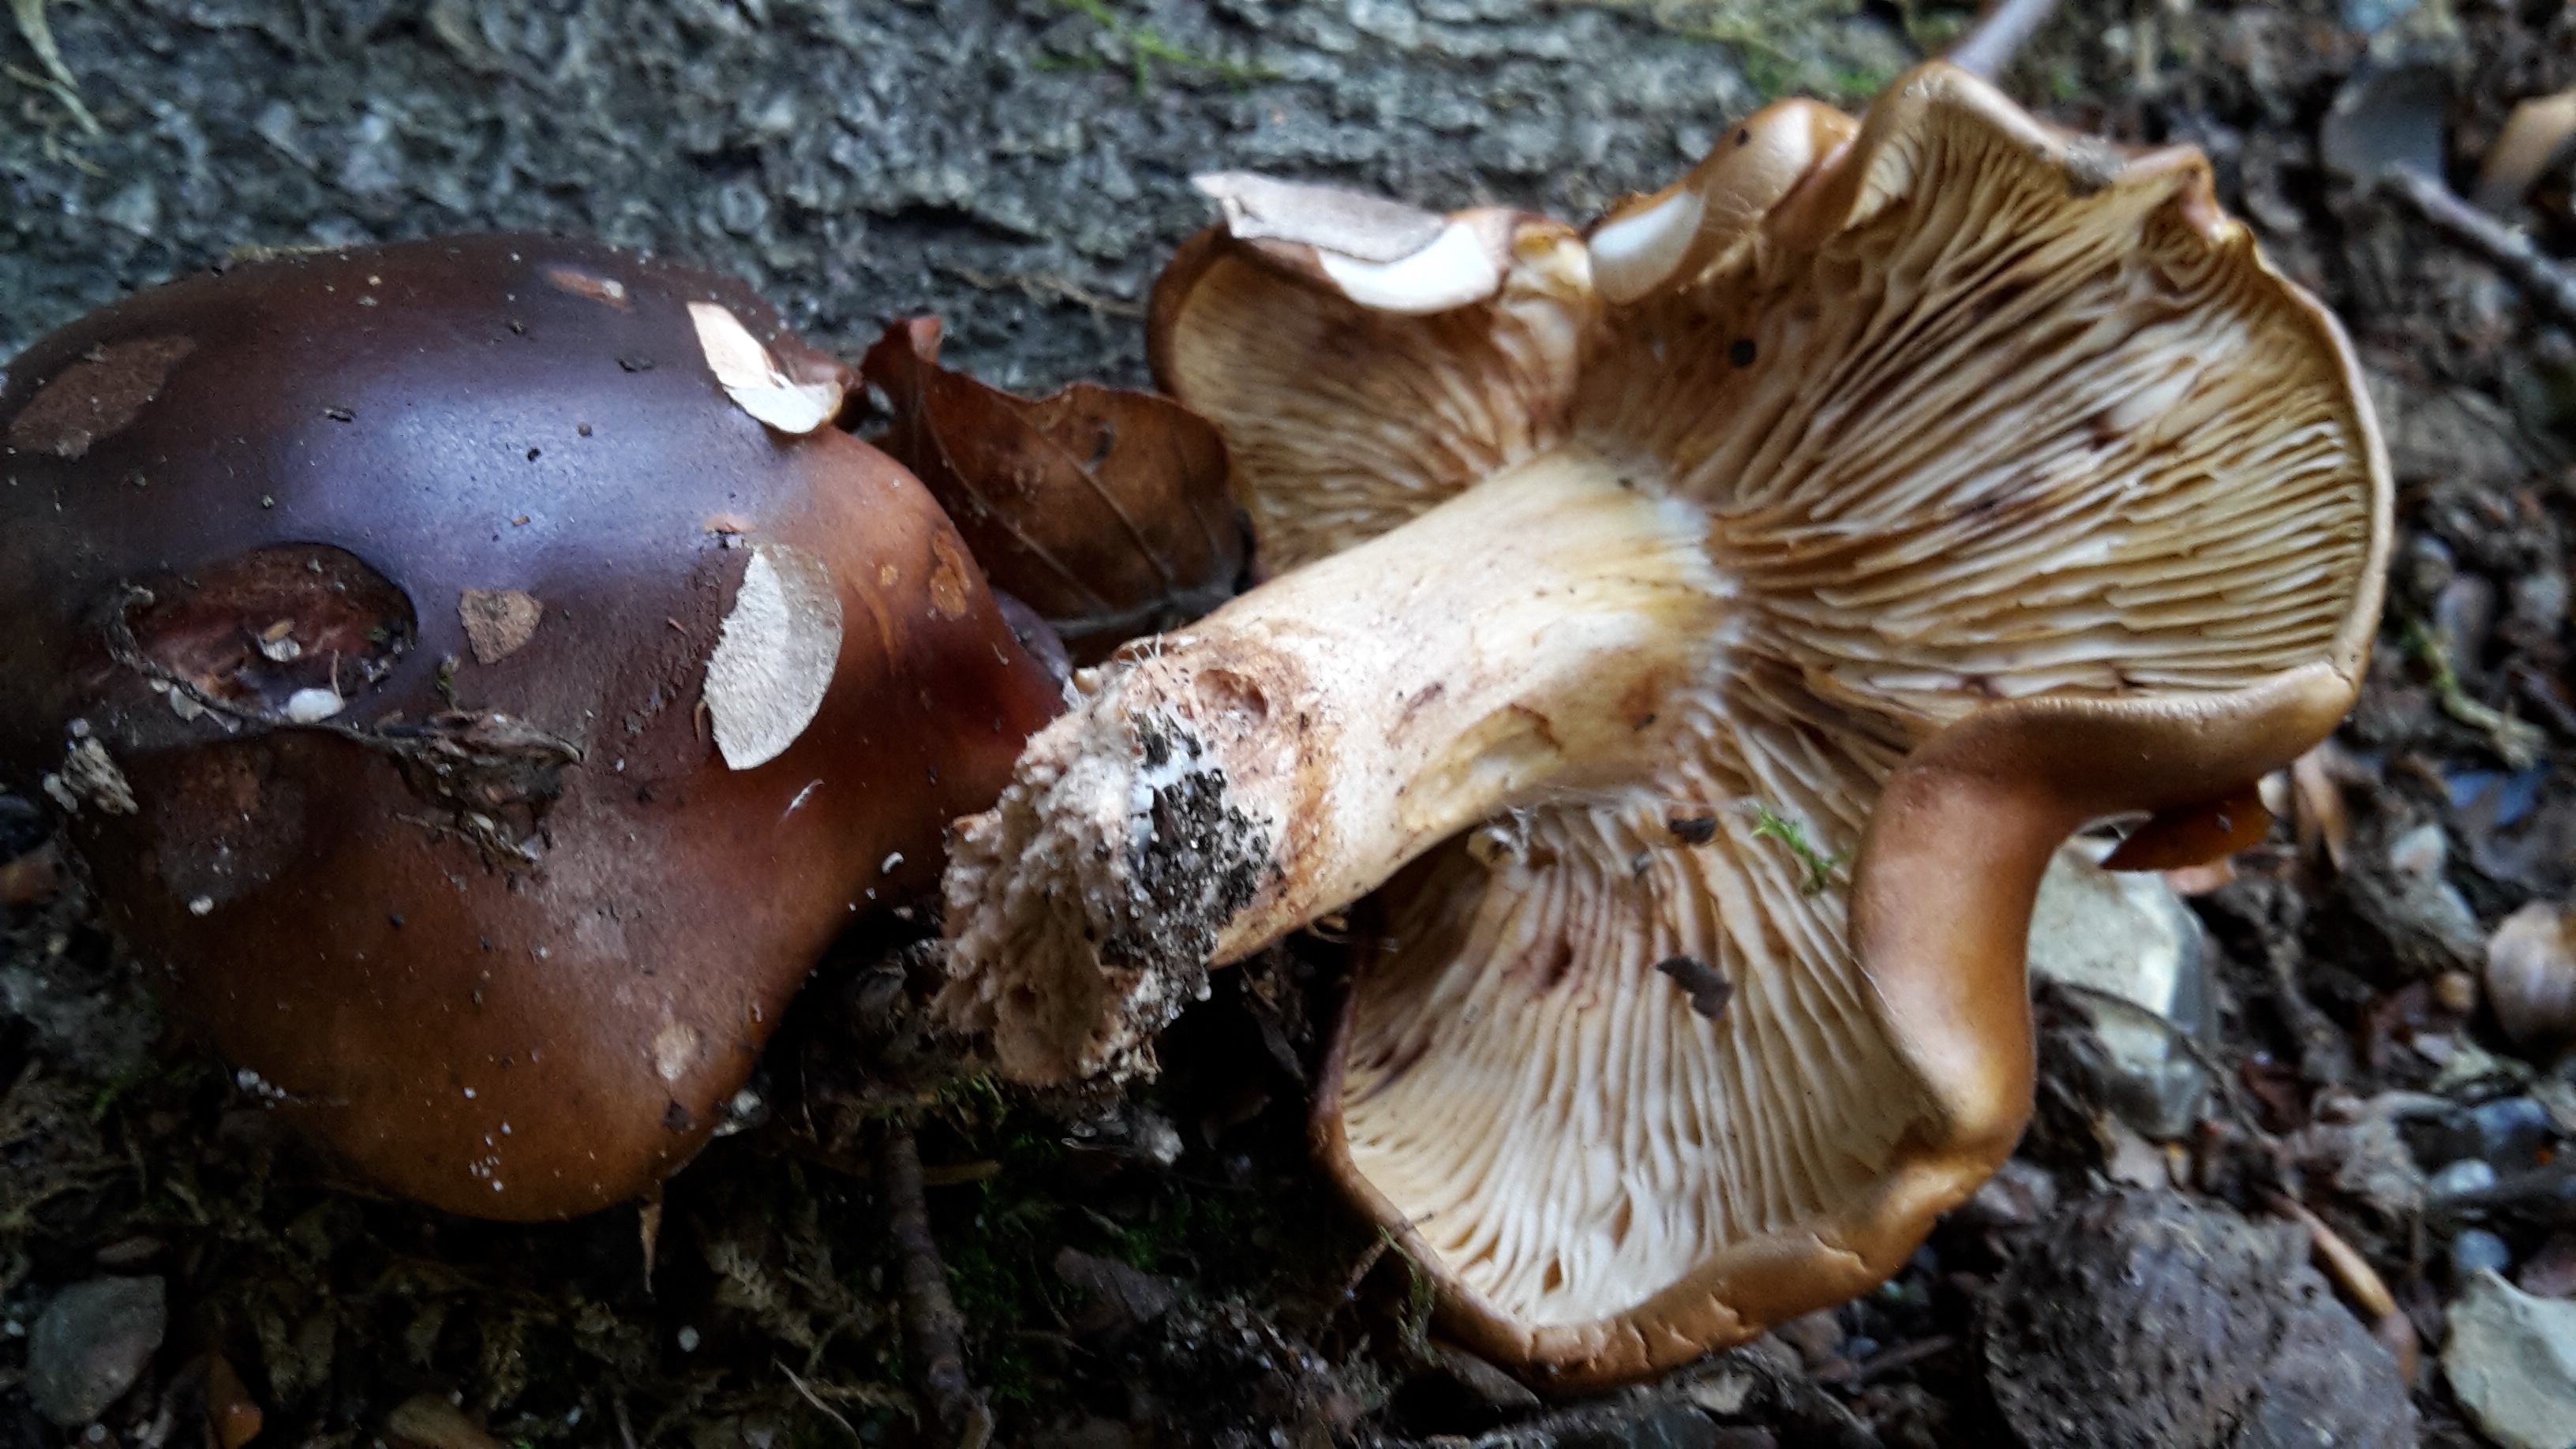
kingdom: Fungi
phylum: Basidiomycota
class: Agaricomycetes
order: Agaricales
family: Tricholomataceae
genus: Tricholoma
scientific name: Tricholoma ustale
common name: sveden ridderhat
